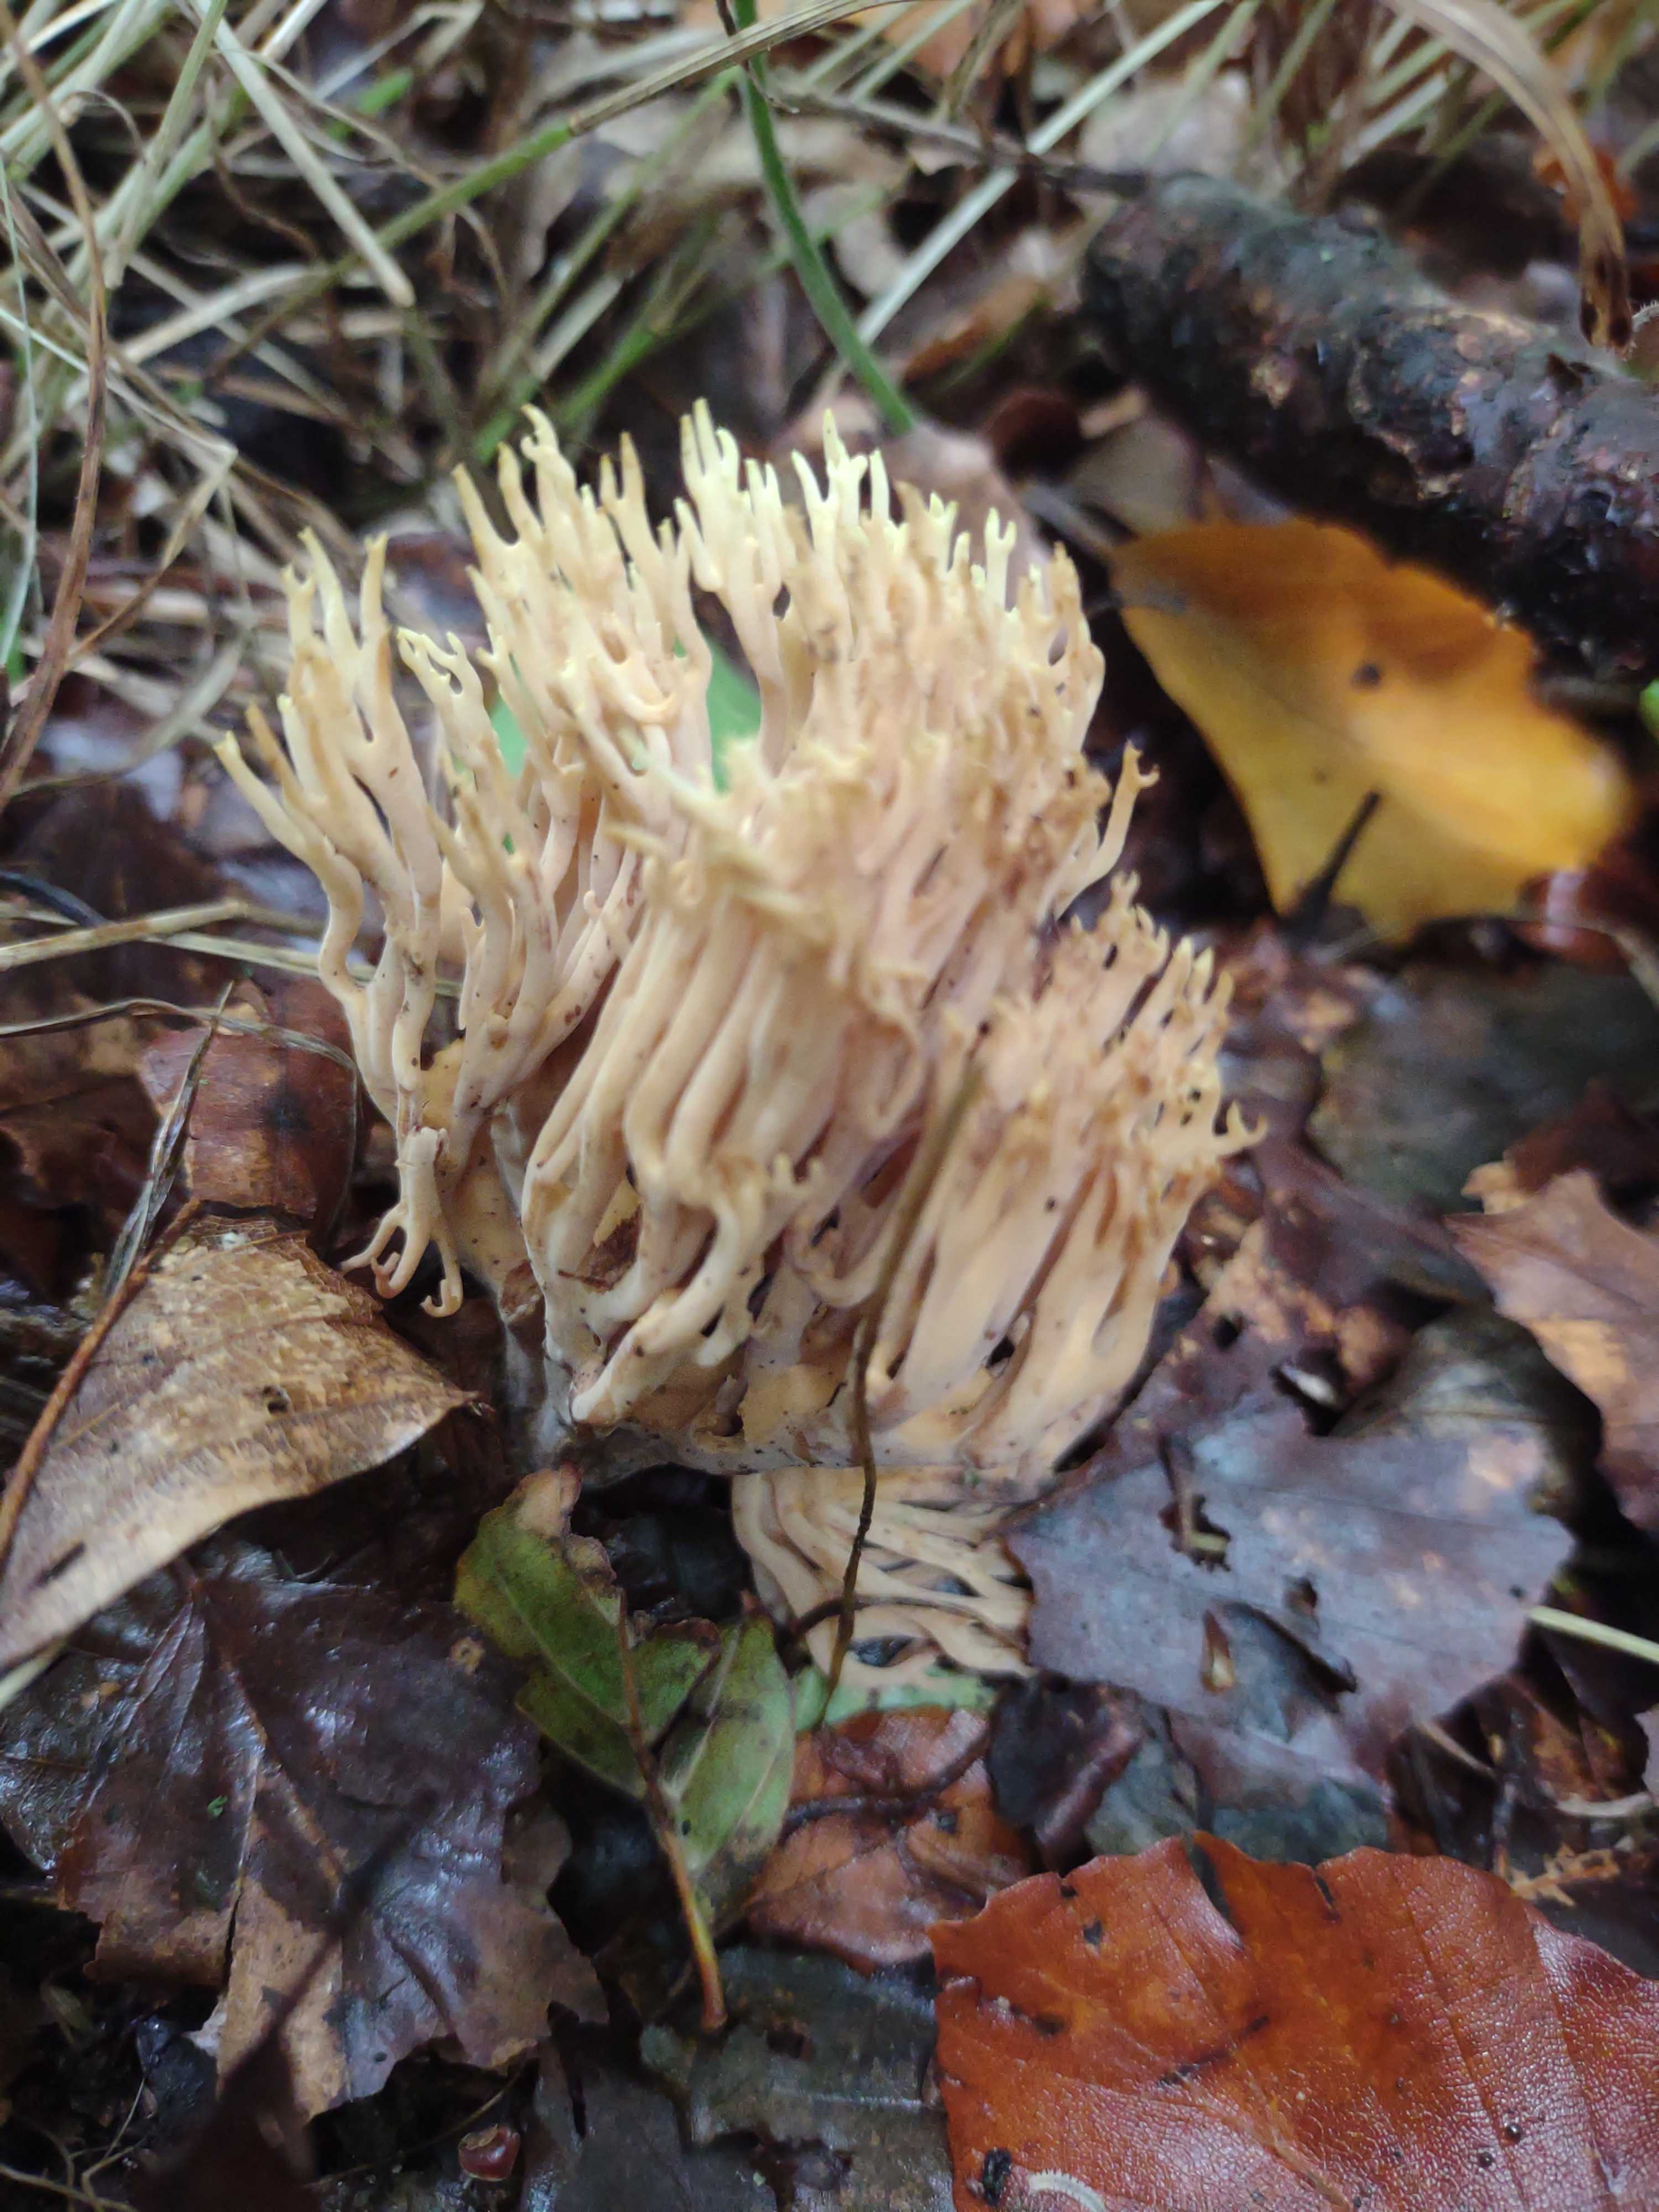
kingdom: Fungi
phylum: Basidiomycota
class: Agaricomycetes
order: Gomphales
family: Gomphaceae
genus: Ramaria
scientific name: Ramaria stricta
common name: rank koralsvamp
